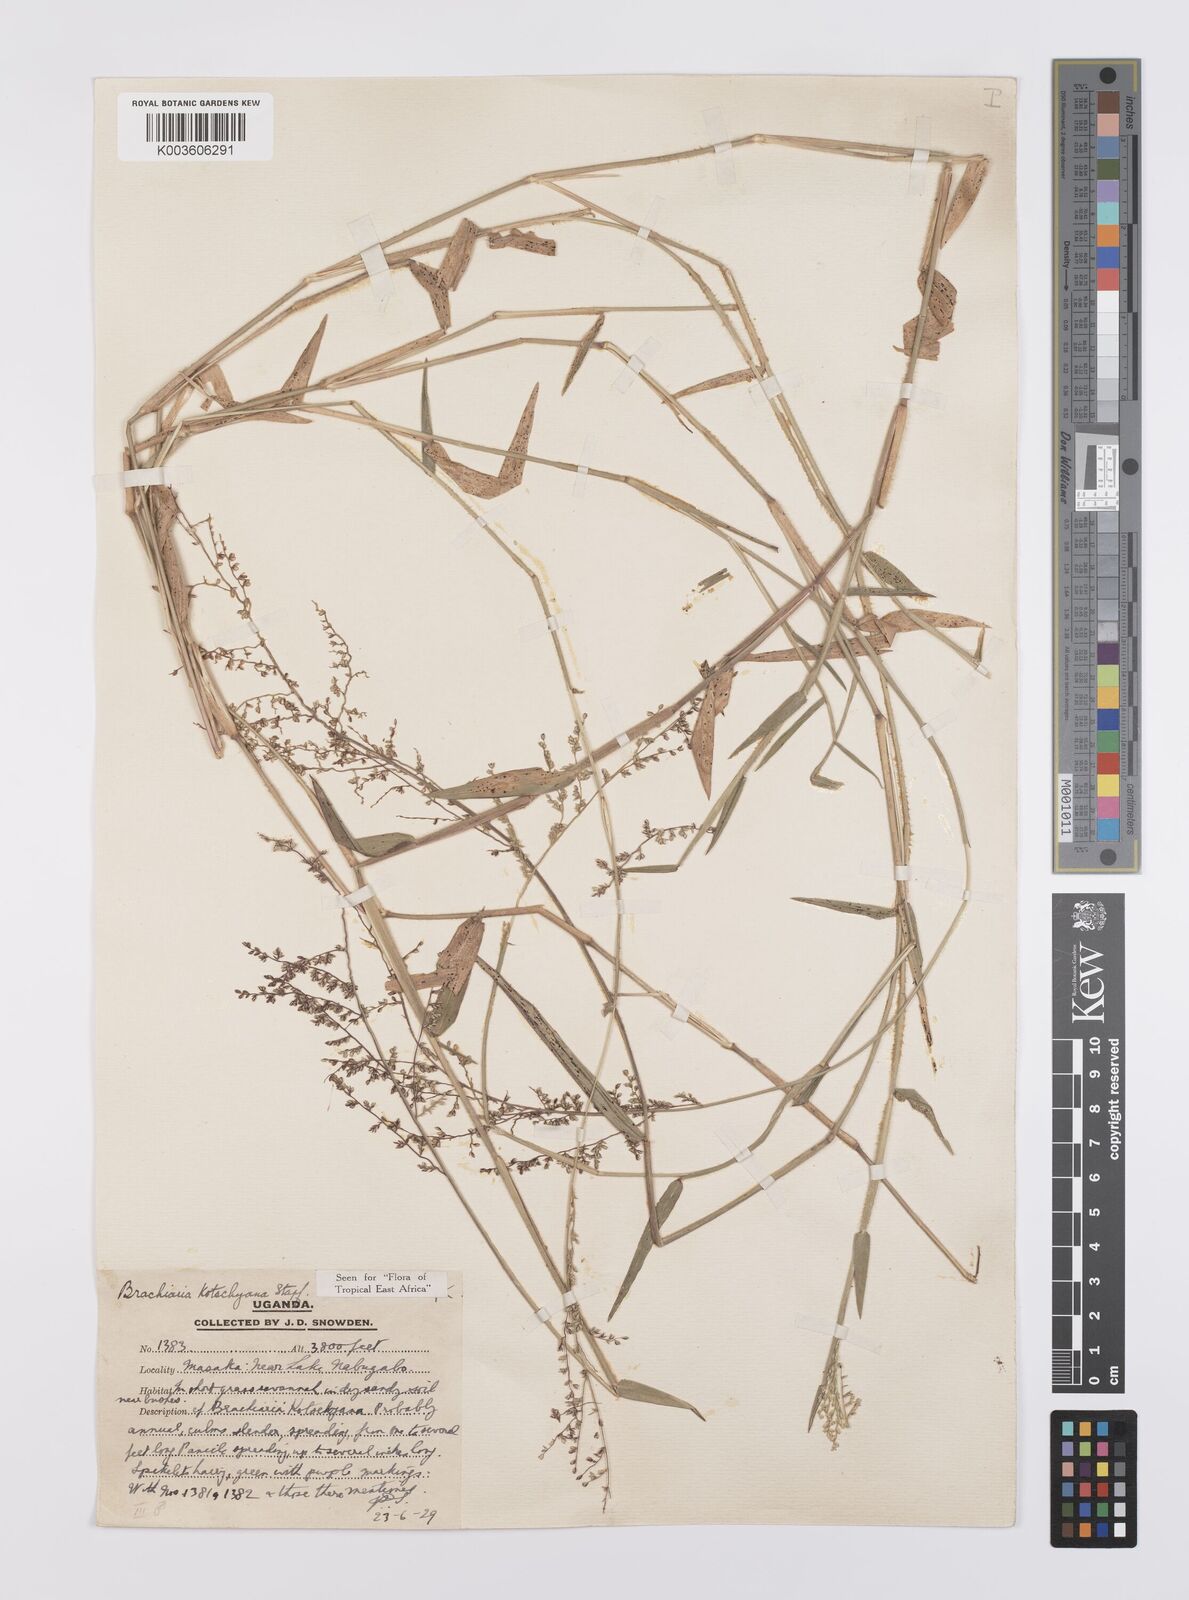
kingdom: Plantae
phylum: Tracheophyta
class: Liliopsida
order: Poales
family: Poaceae
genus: Urochloa
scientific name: Urochloa comata
